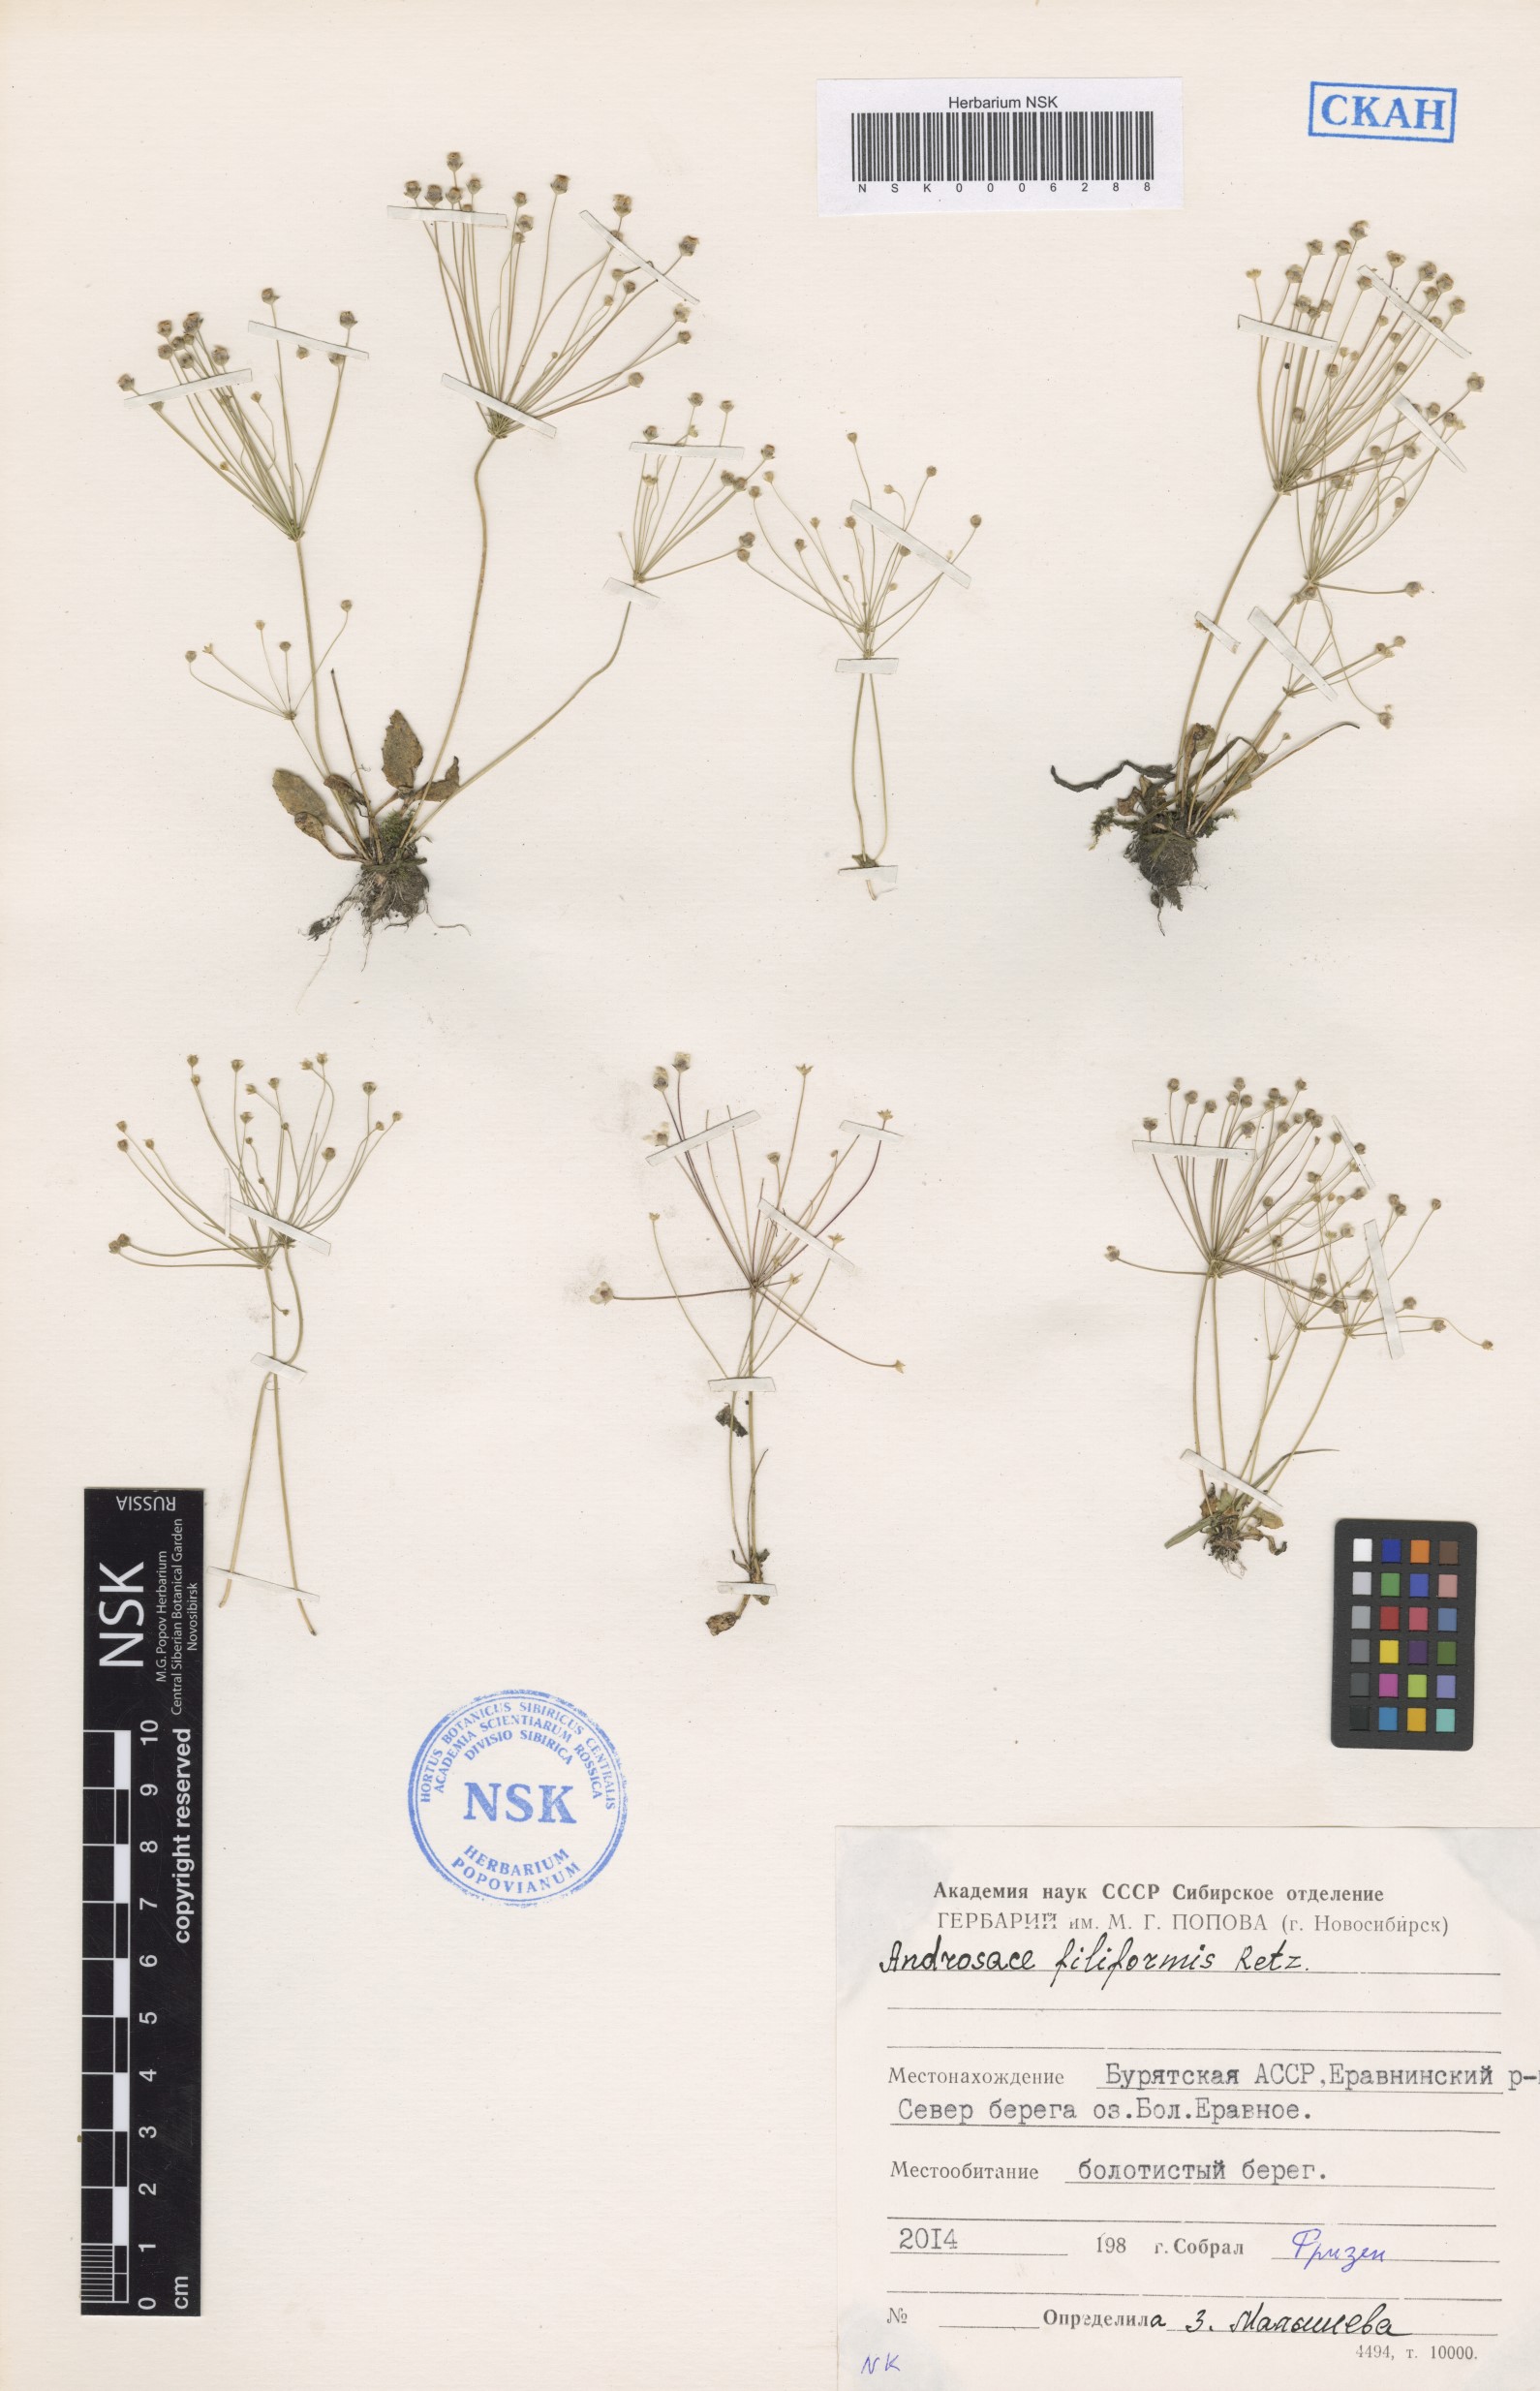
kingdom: Plantae
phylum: Tracheophyta
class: Magnoliopsida
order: Ericales
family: Primulaceae
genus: Androsace
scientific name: Androsace filiformis
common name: Filiform rock jasmine
